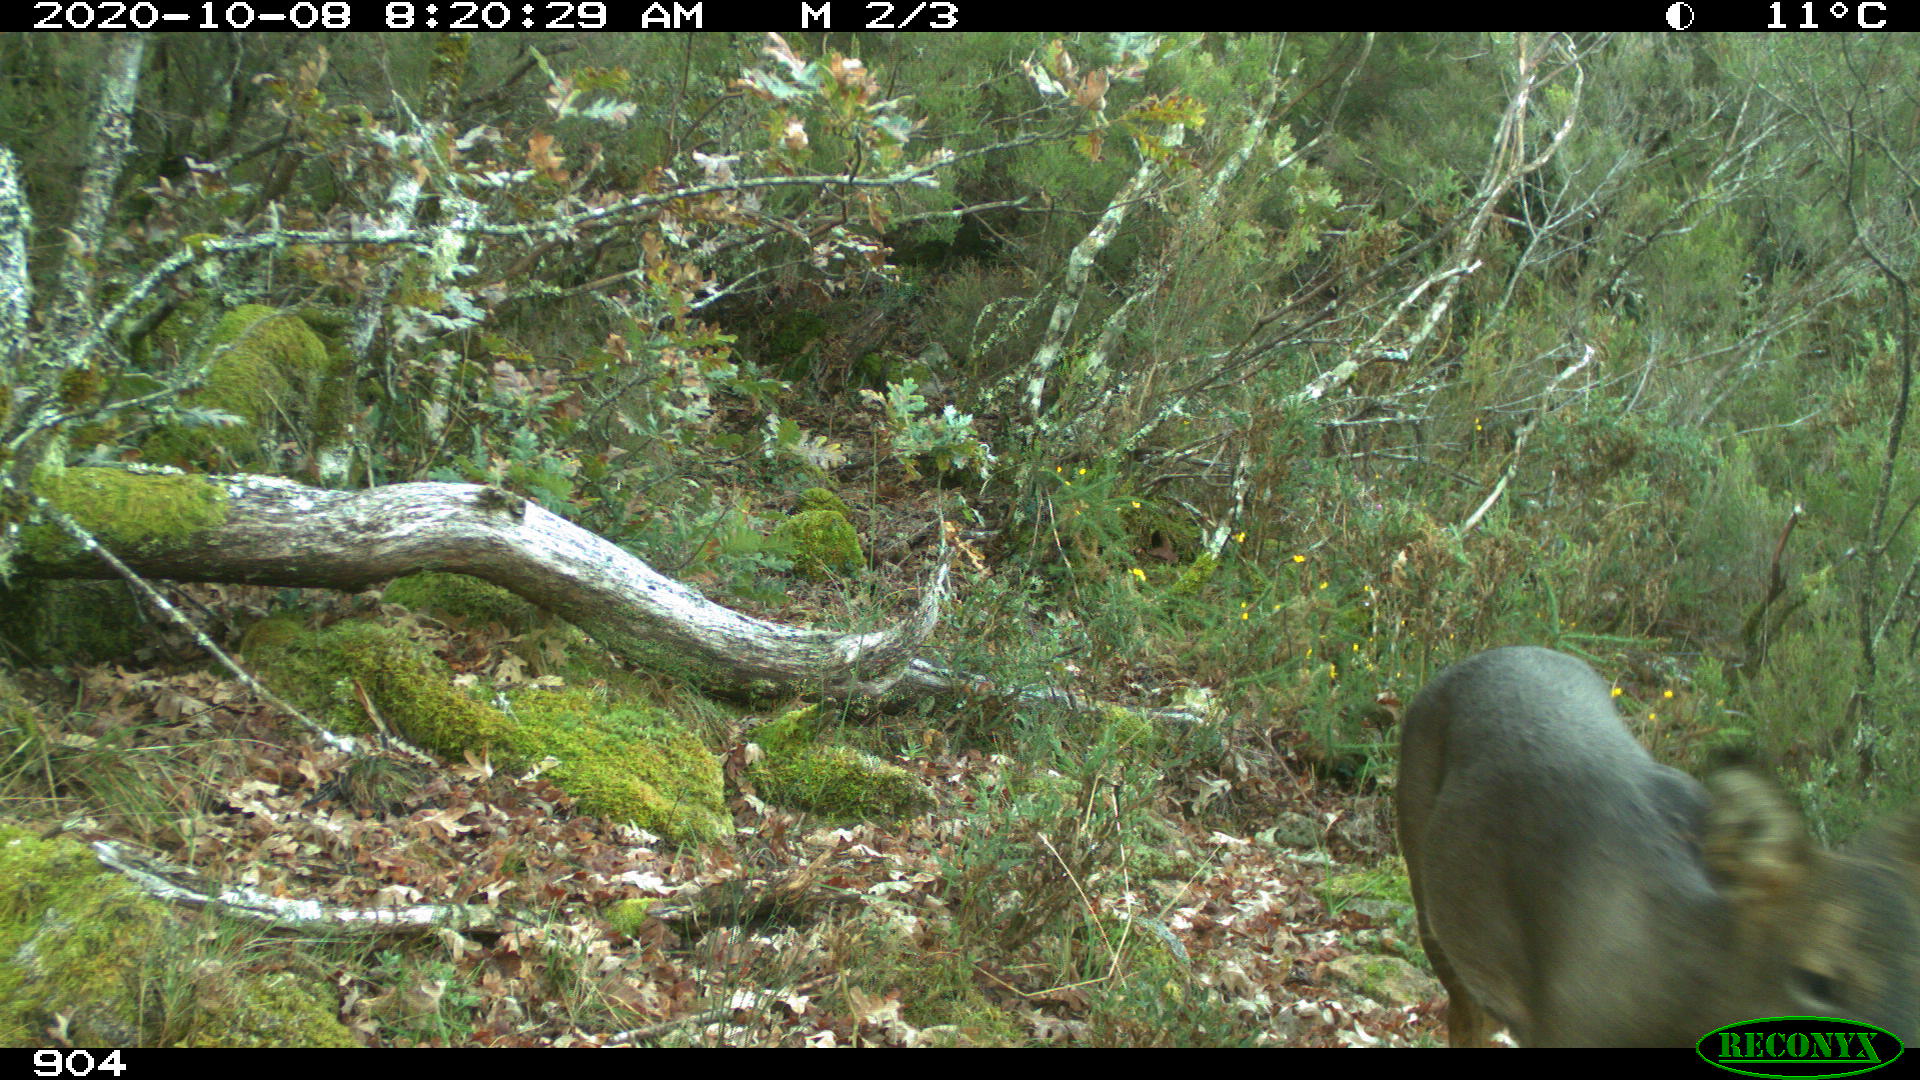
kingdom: Animalia
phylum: Chordata
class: Mammalia
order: Artiodactyla
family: Cervidae
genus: Capreolus
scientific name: Capreolus capreolus
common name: Western roe deer
